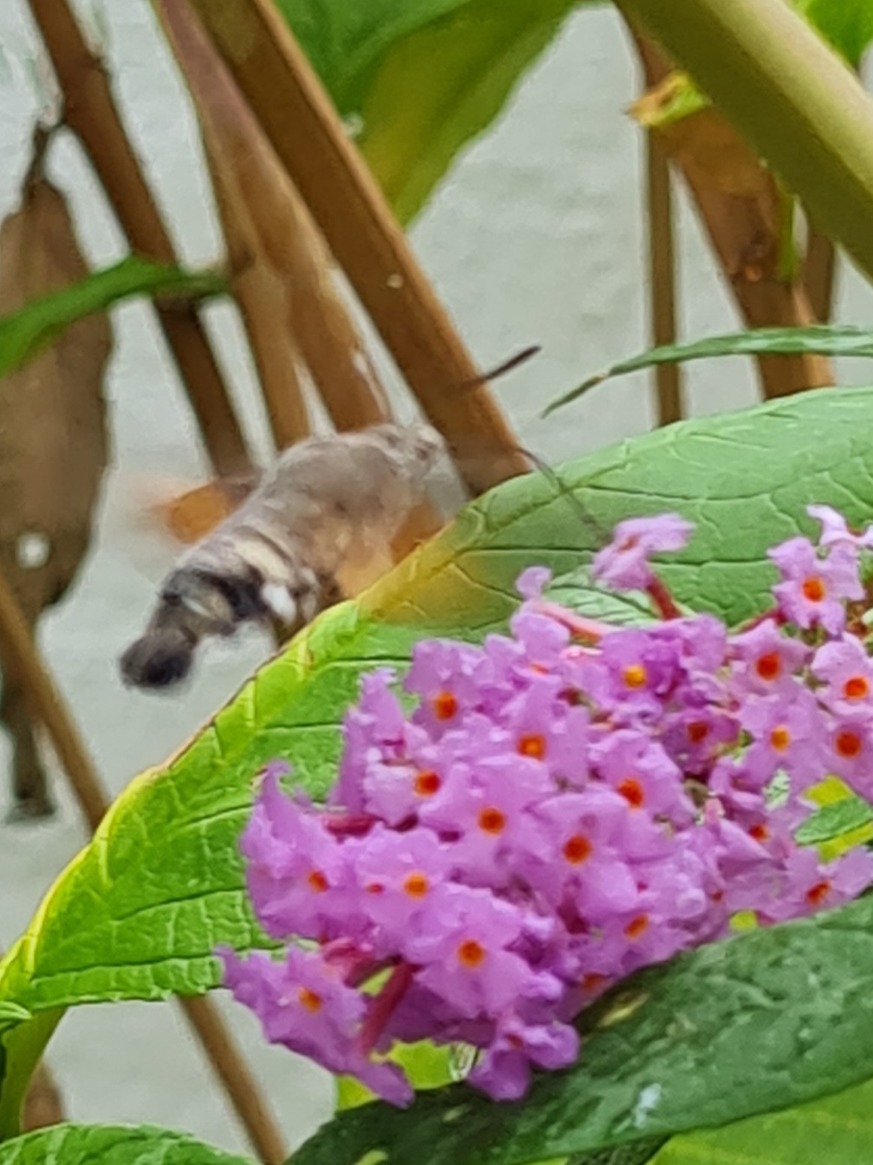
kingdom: Animalia
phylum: Arthropoda
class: Insecta
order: Lepidoptera
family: Sphingidae
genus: Macroglossum
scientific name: Macroglossum stellatarum
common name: Duehale
